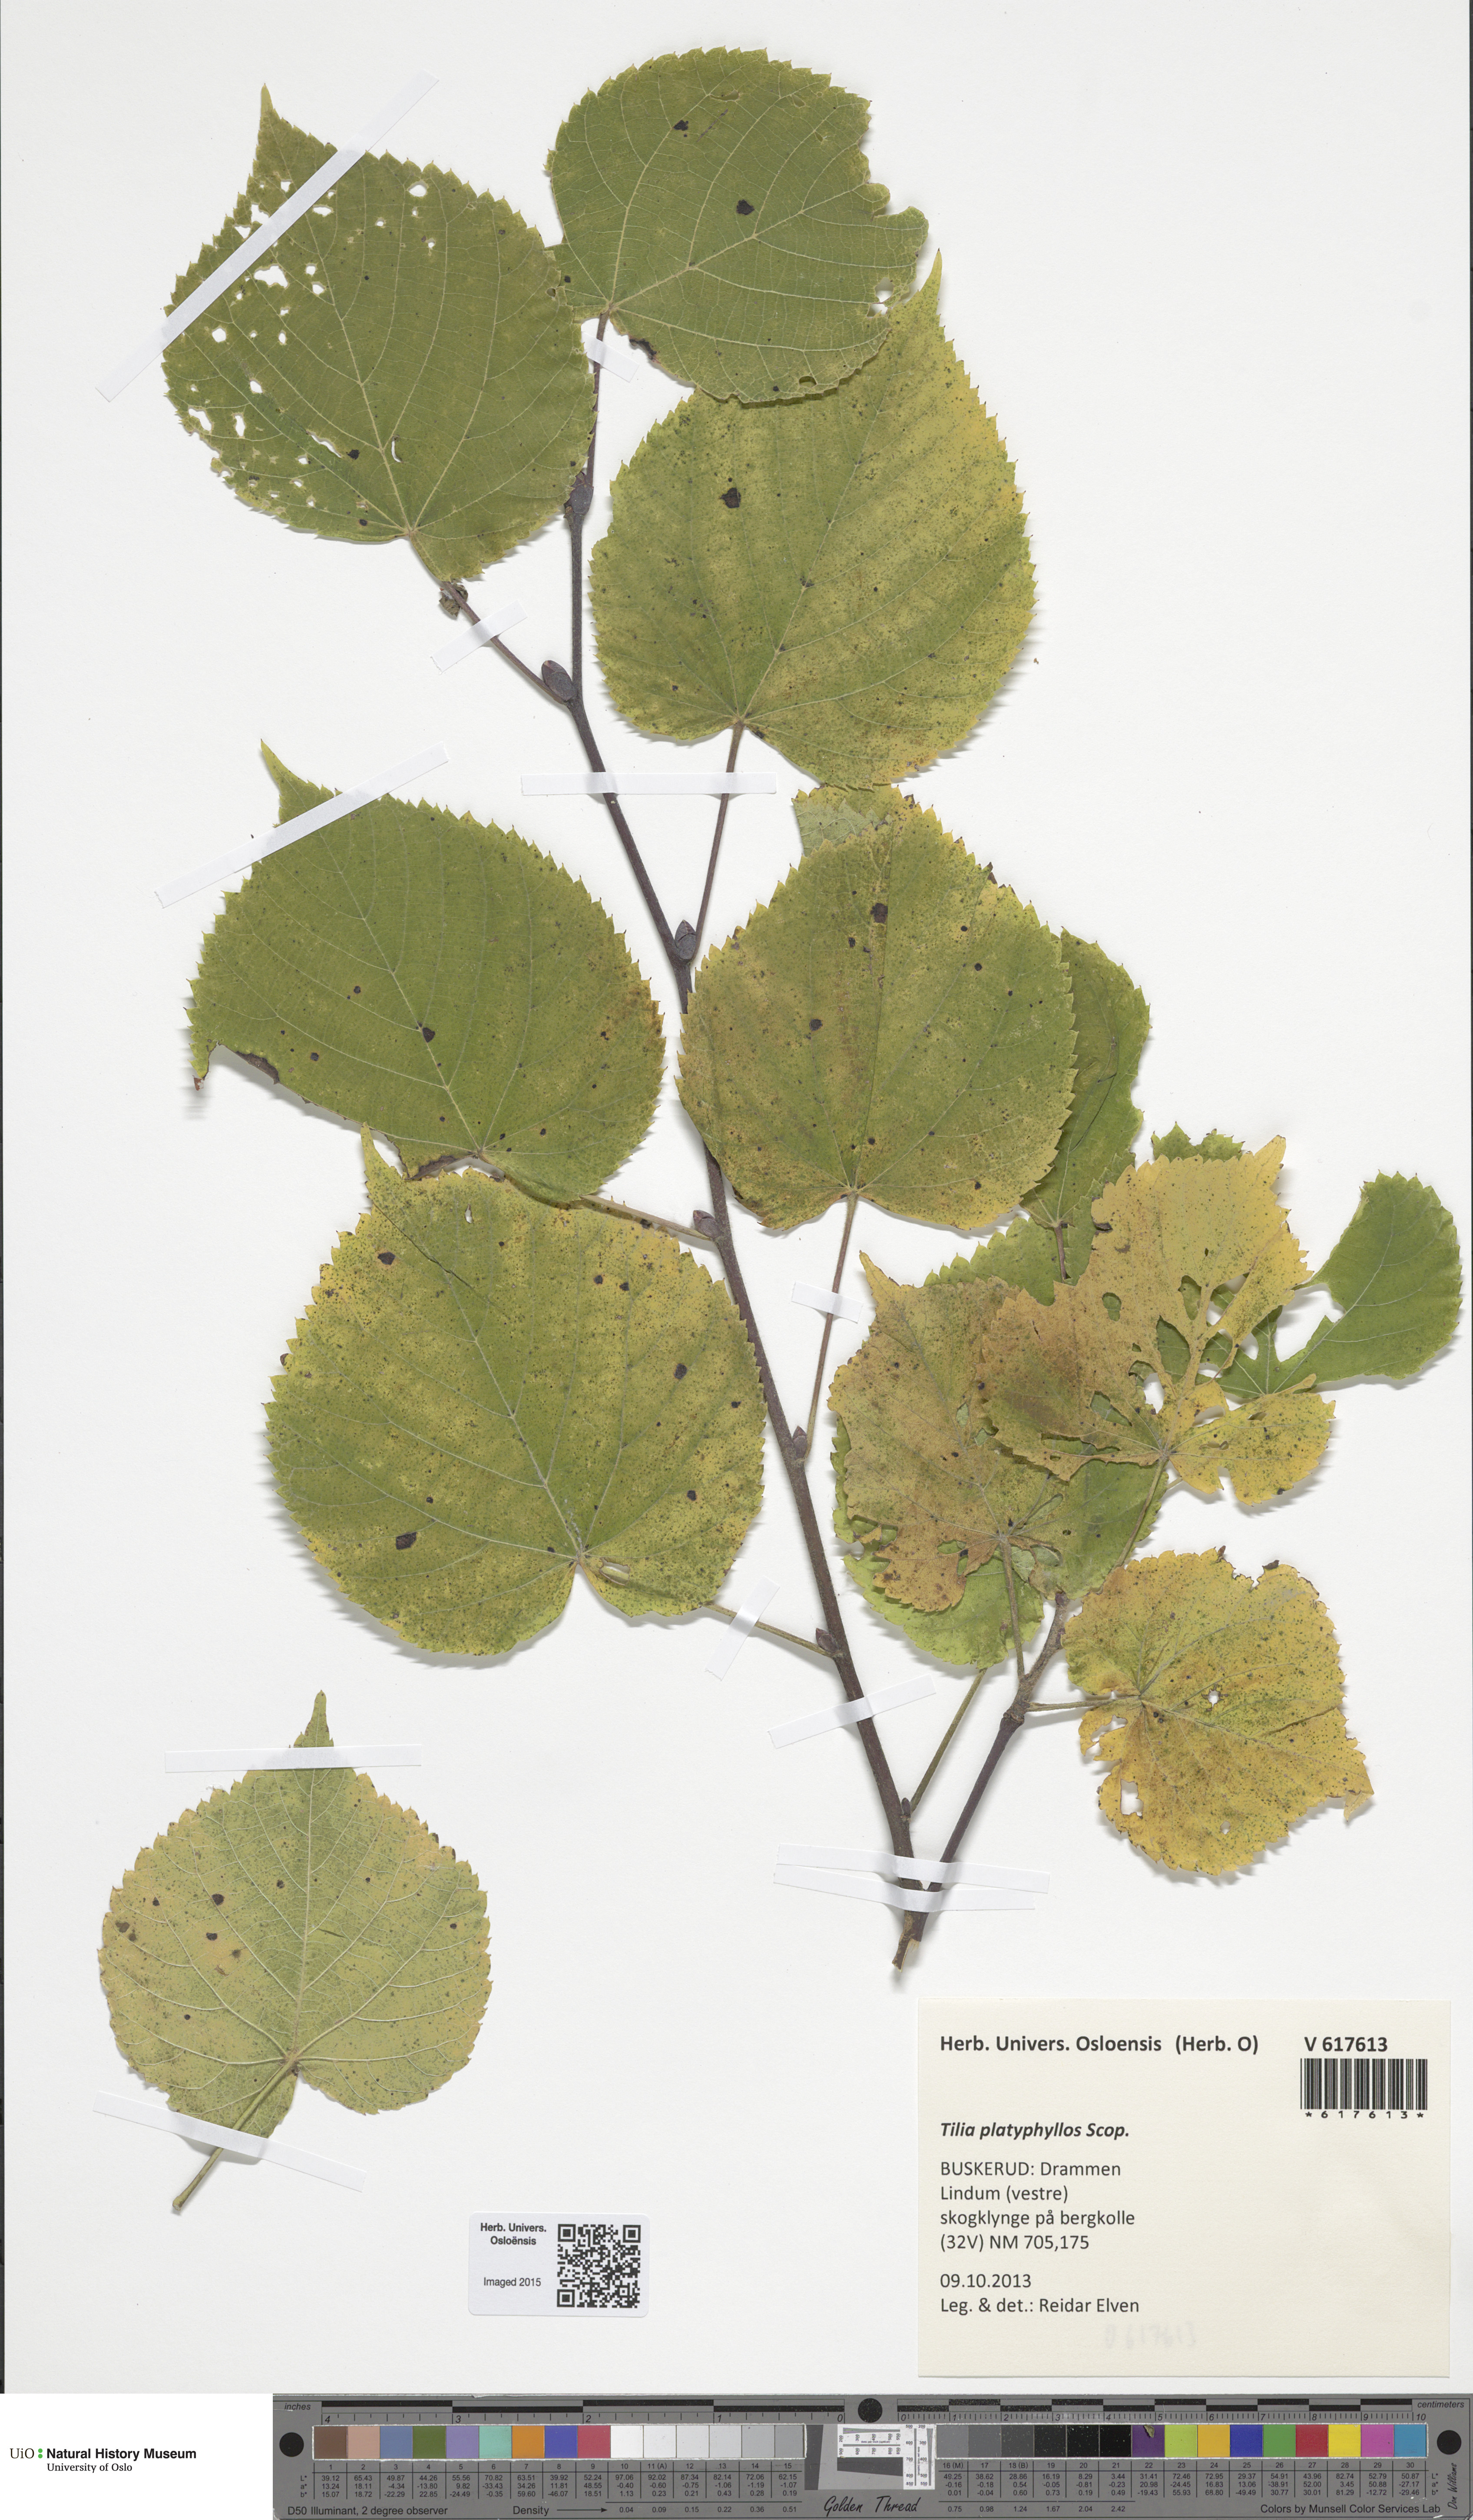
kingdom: Plantae
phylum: Tracheophyta
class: Magnoliopsida
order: Malvales
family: Malvaceae
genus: Tilia
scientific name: Tilia platyphyllos
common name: Large-leaved lime
